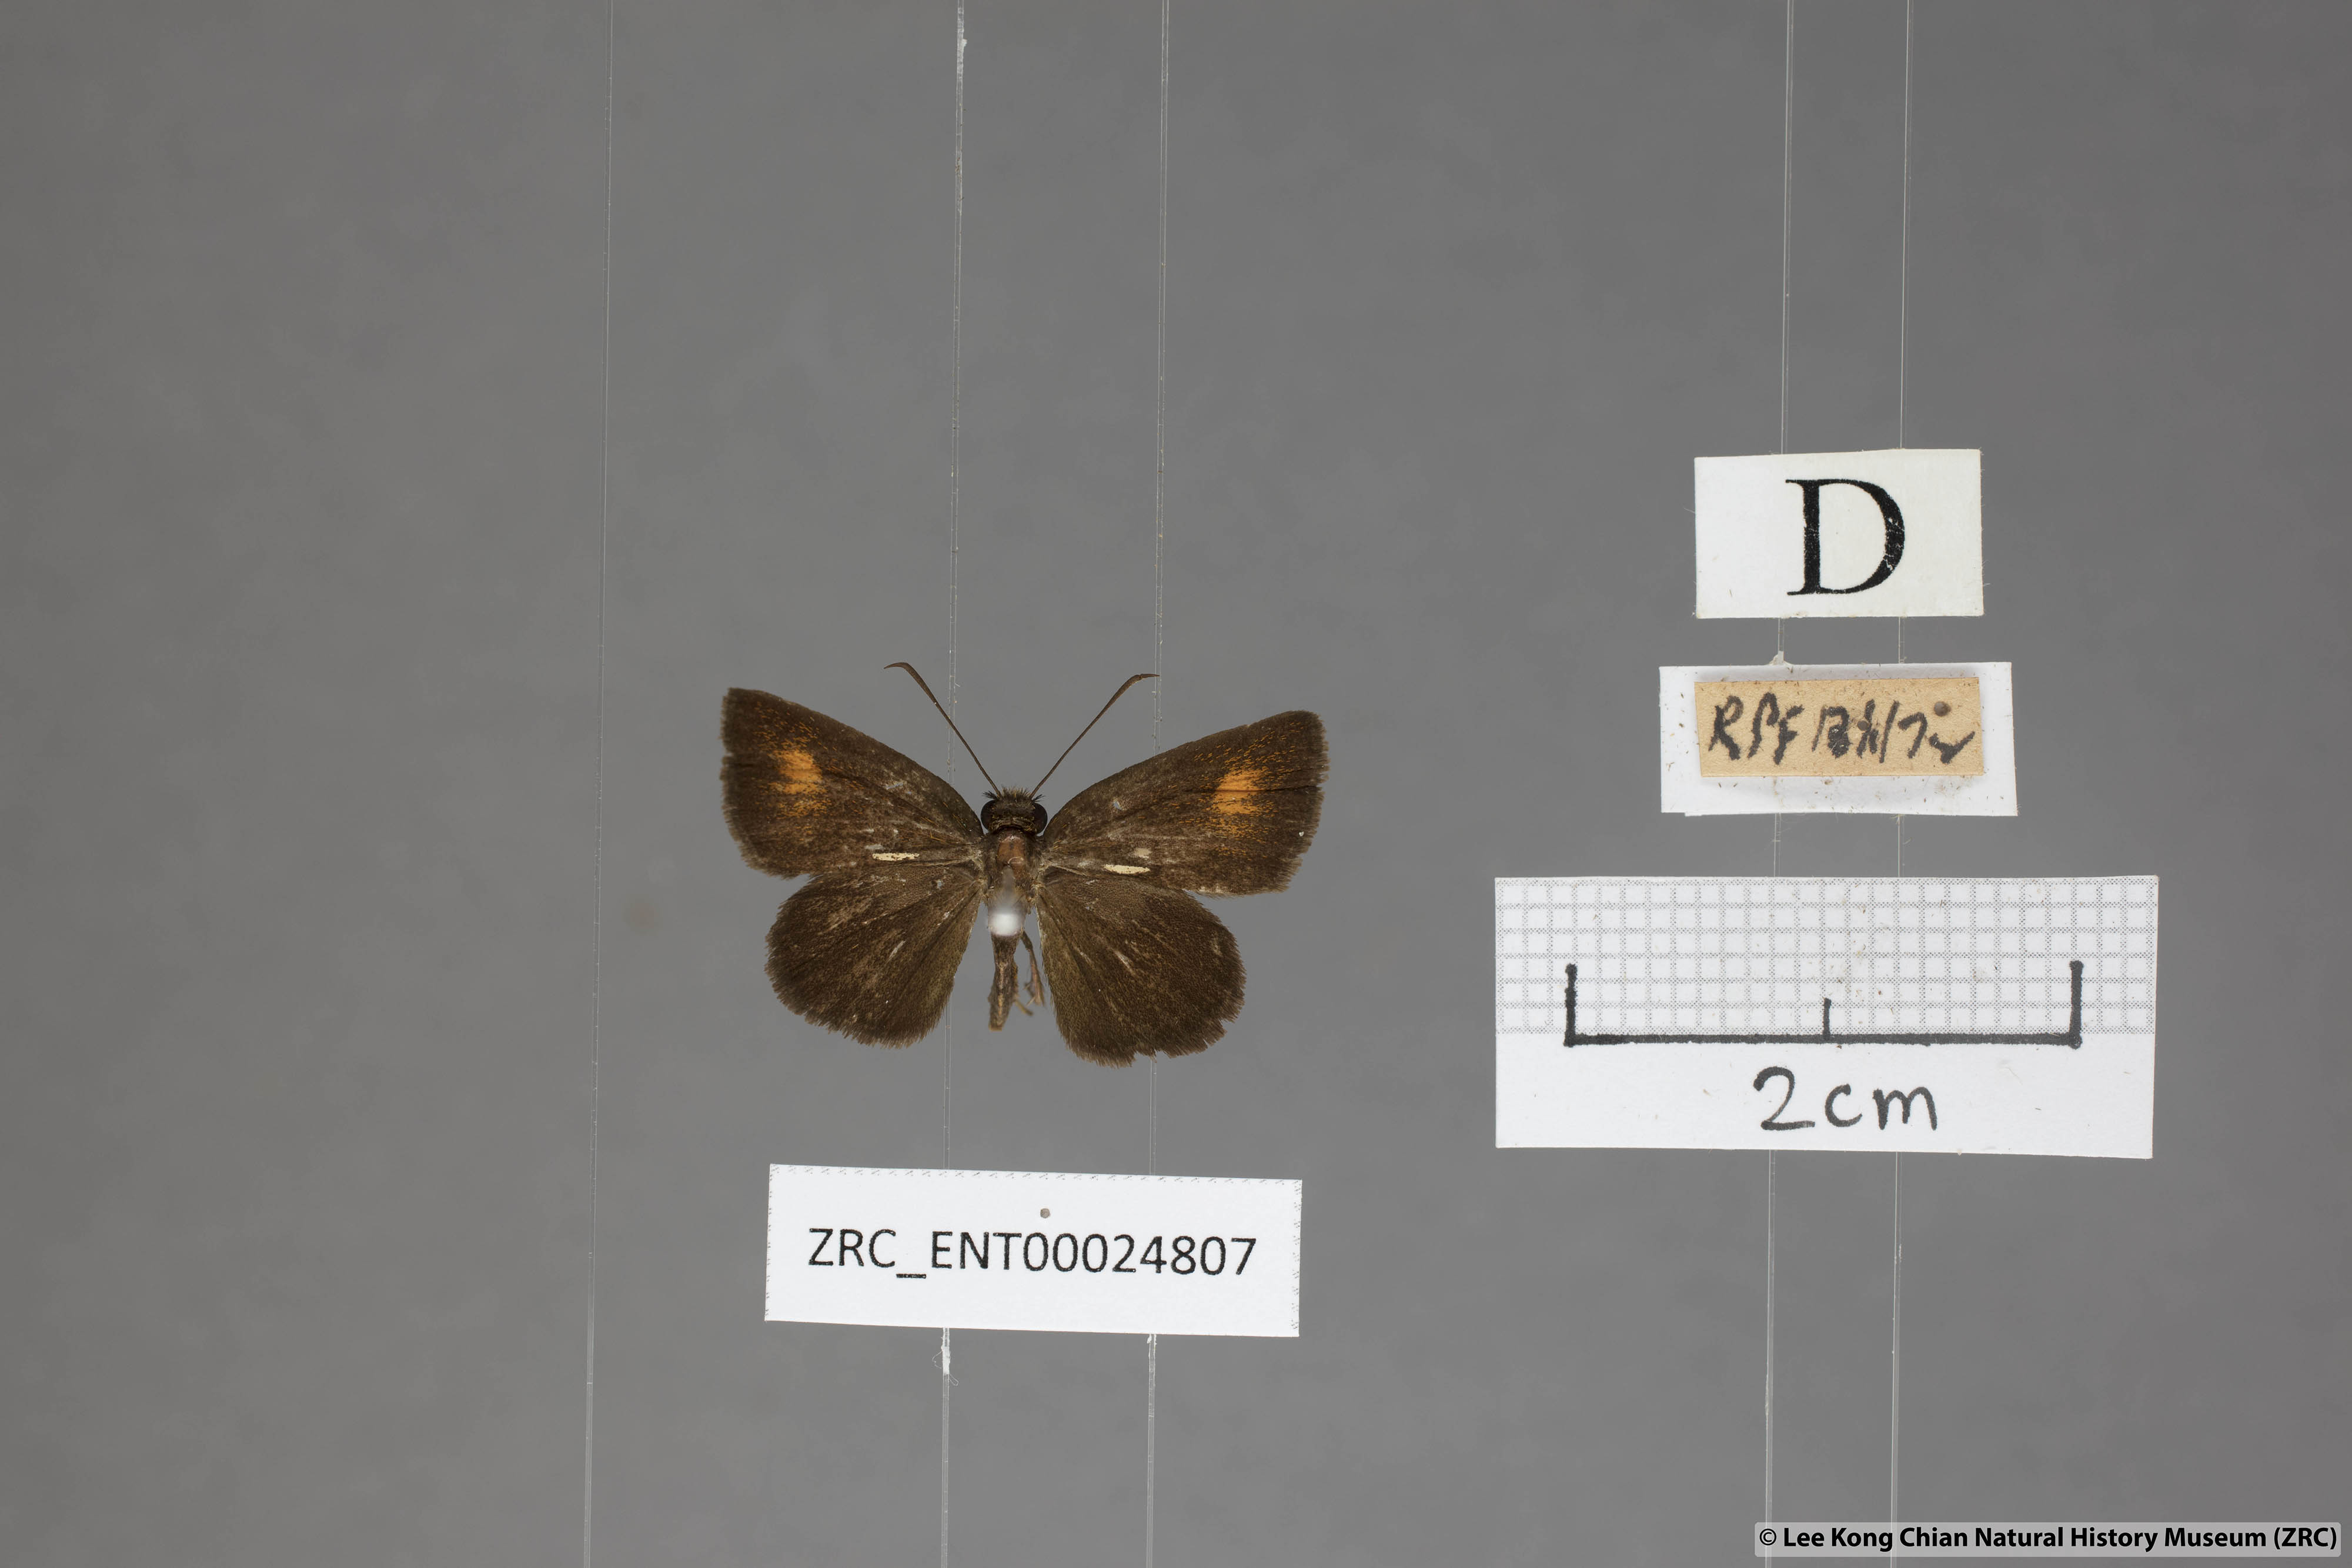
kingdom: Animalia
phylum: Arthropoda
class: Insecta
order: Lepidoptera
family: Hesperiidae
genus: Iambrix
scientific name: Iambrix Idmon obliquans
